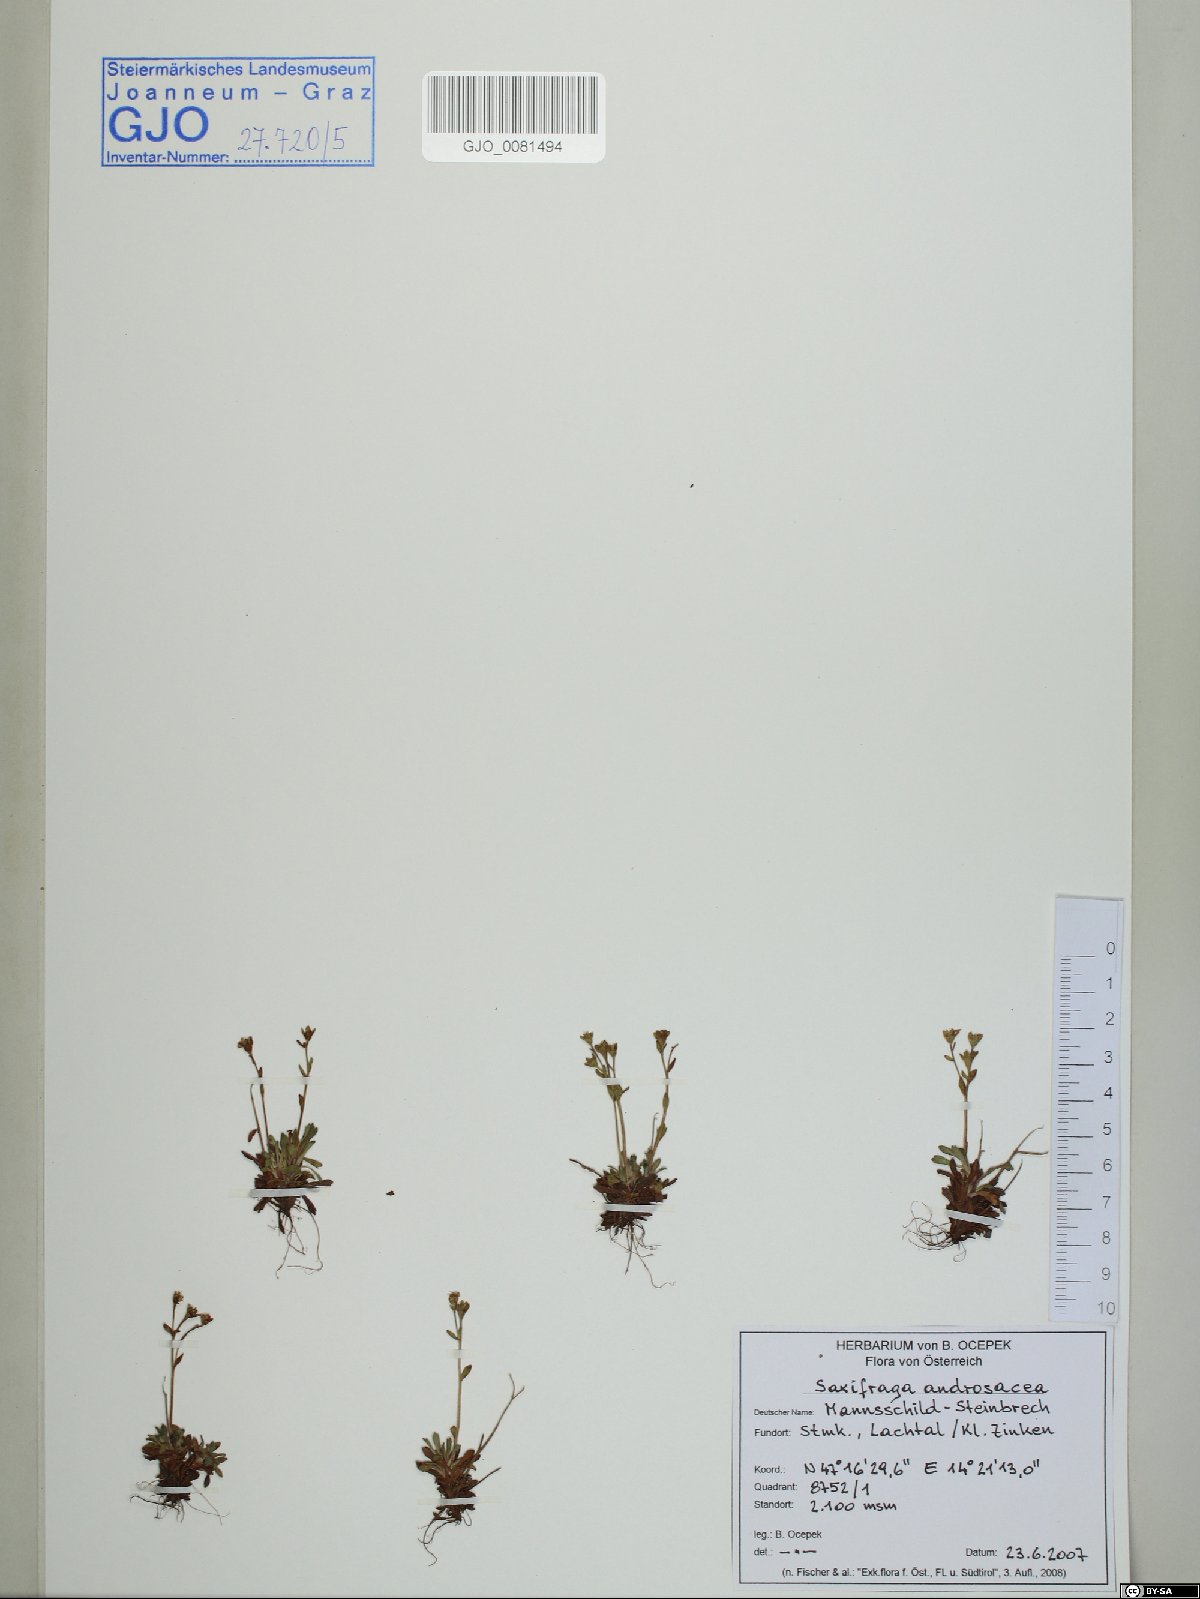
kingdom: Plantae
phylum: Tracheophyta
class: Magnoliopsida
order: Saxifragales
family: Saxifragaceae
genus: Saxifraga
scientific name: Saxifraga androsacea
